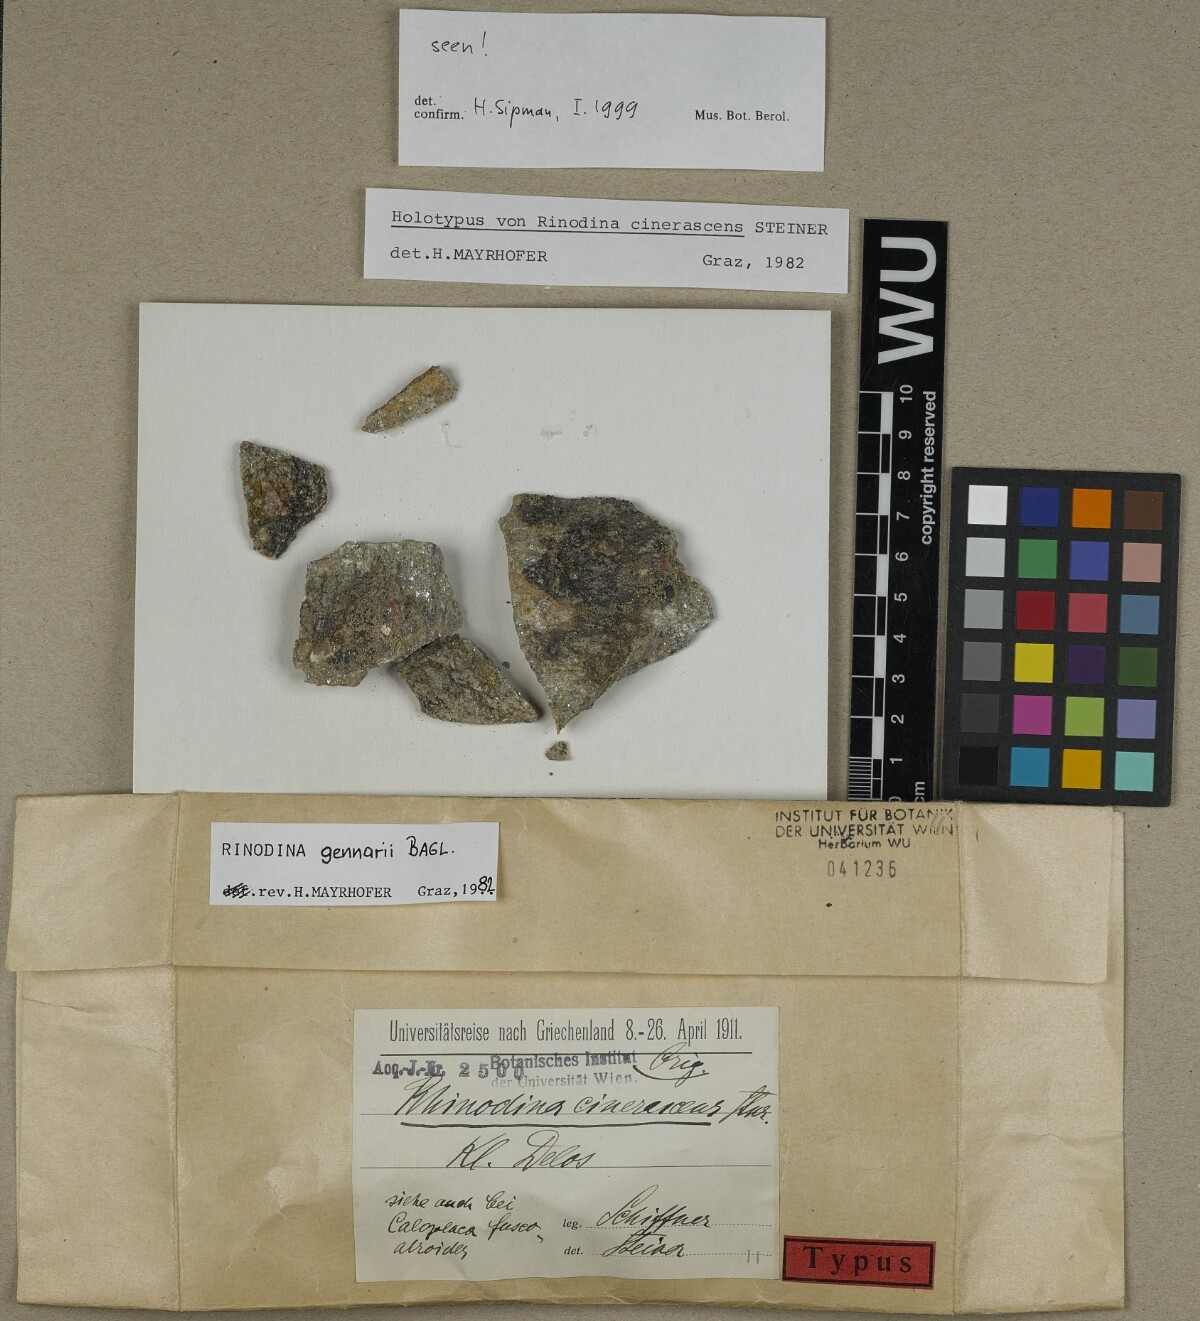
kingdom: Fungi
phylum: Ascomycota
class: Lecanoromycetes
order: Caliciales
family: Physciaceae
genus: Rinodina
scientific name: Rinodina gennarii
